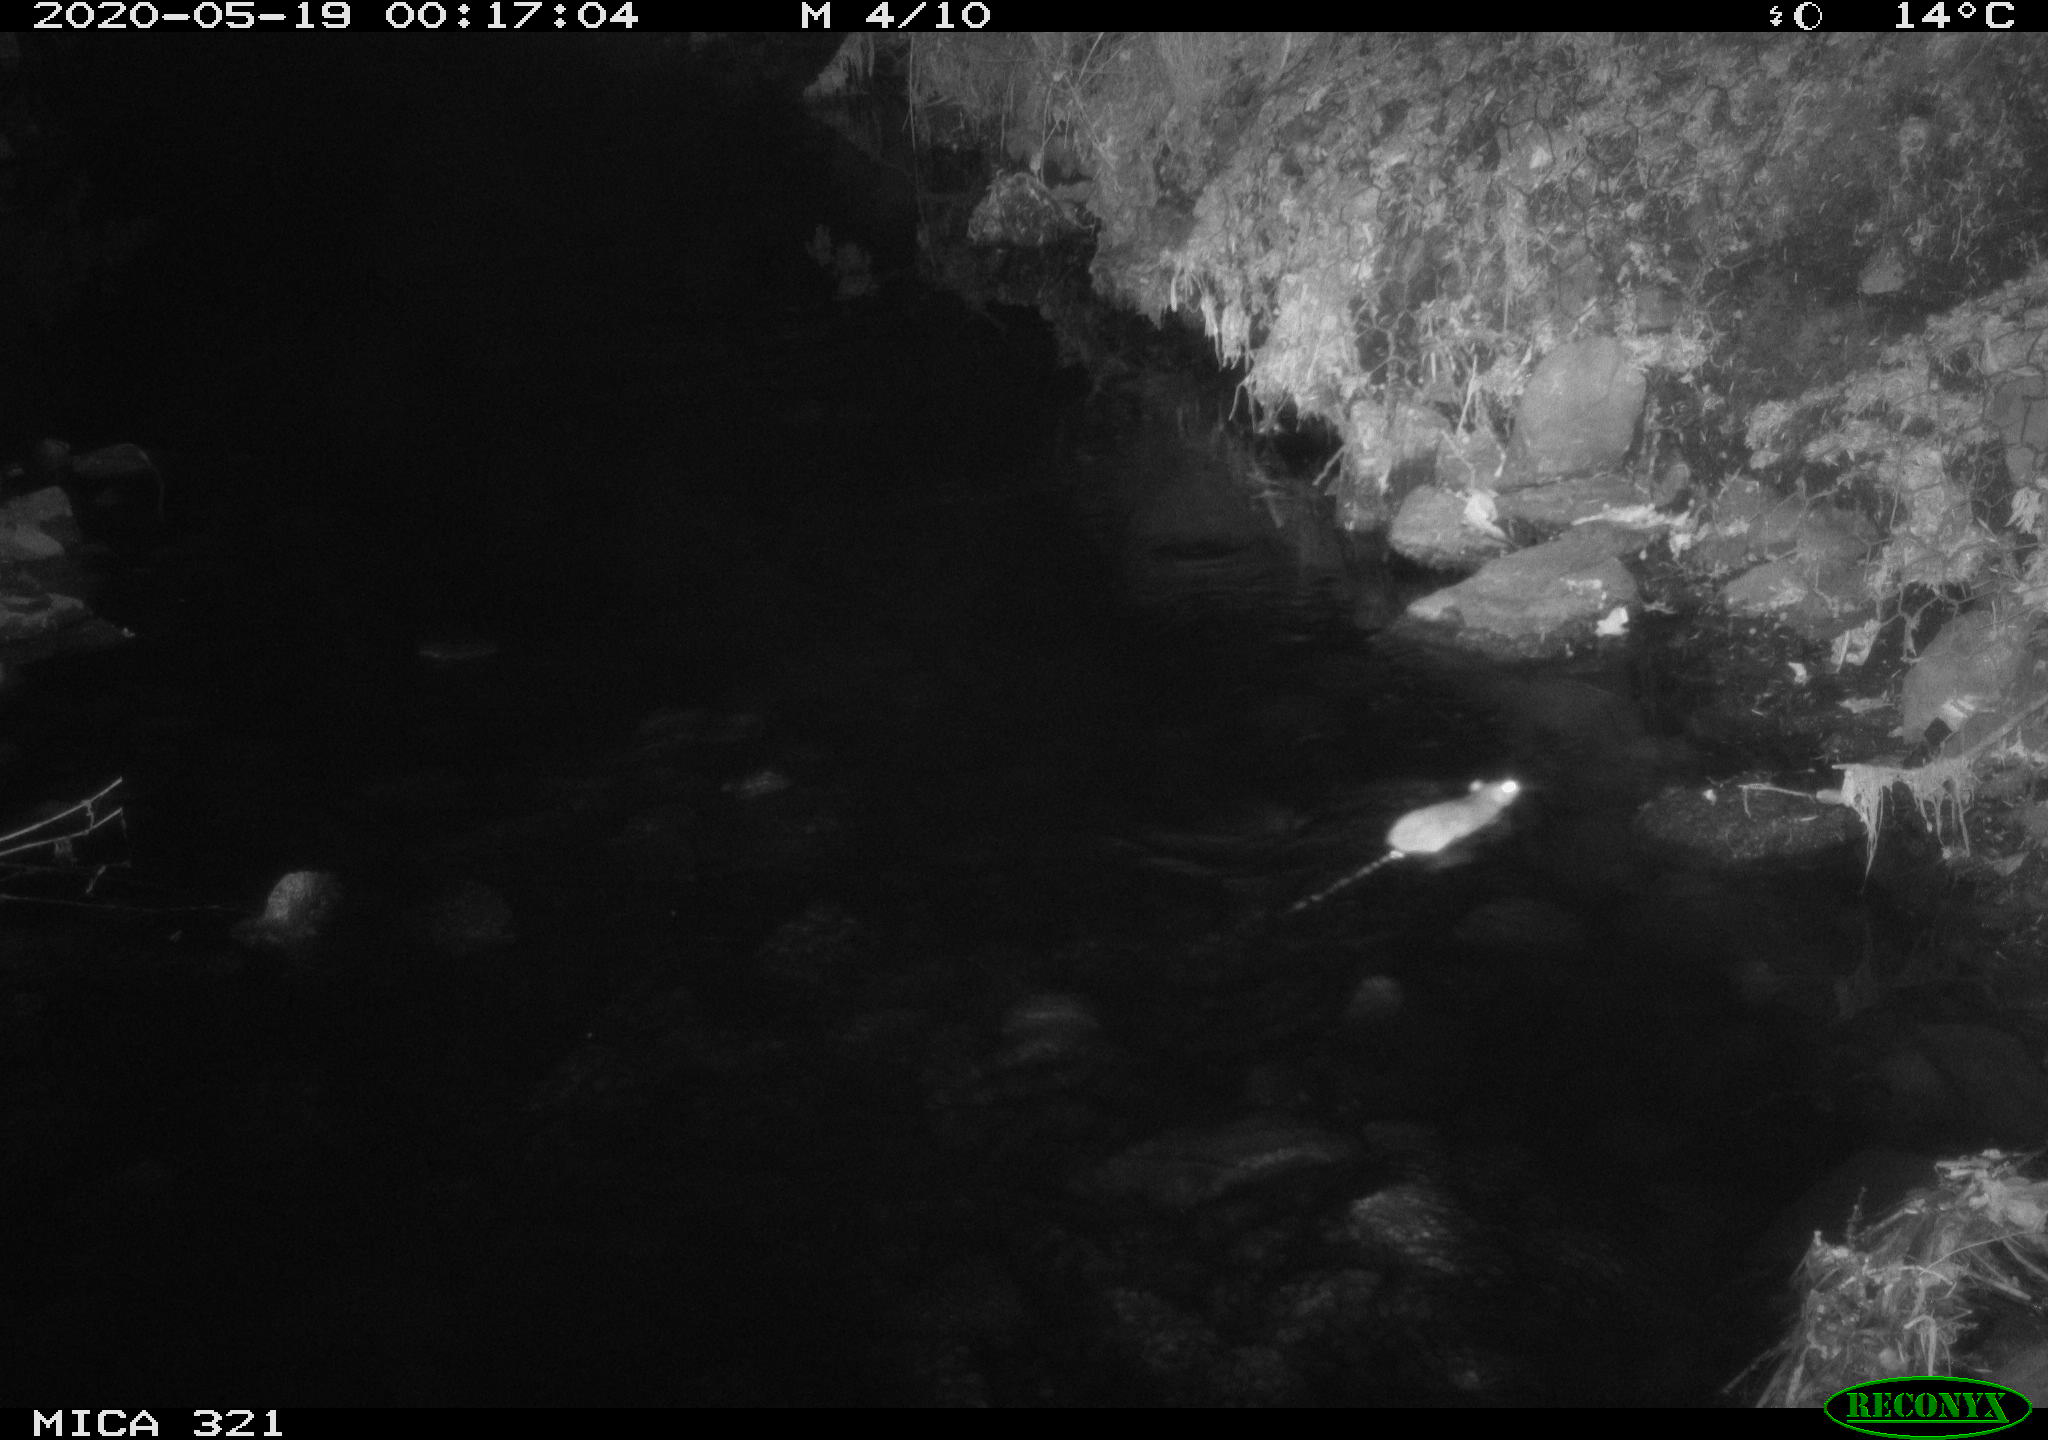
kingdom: Animalia
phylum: Chordata
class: Mammalia
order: Rodentia
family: Muridae
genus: Rattus
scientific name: Rattus norvegicus
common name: Brown rat
